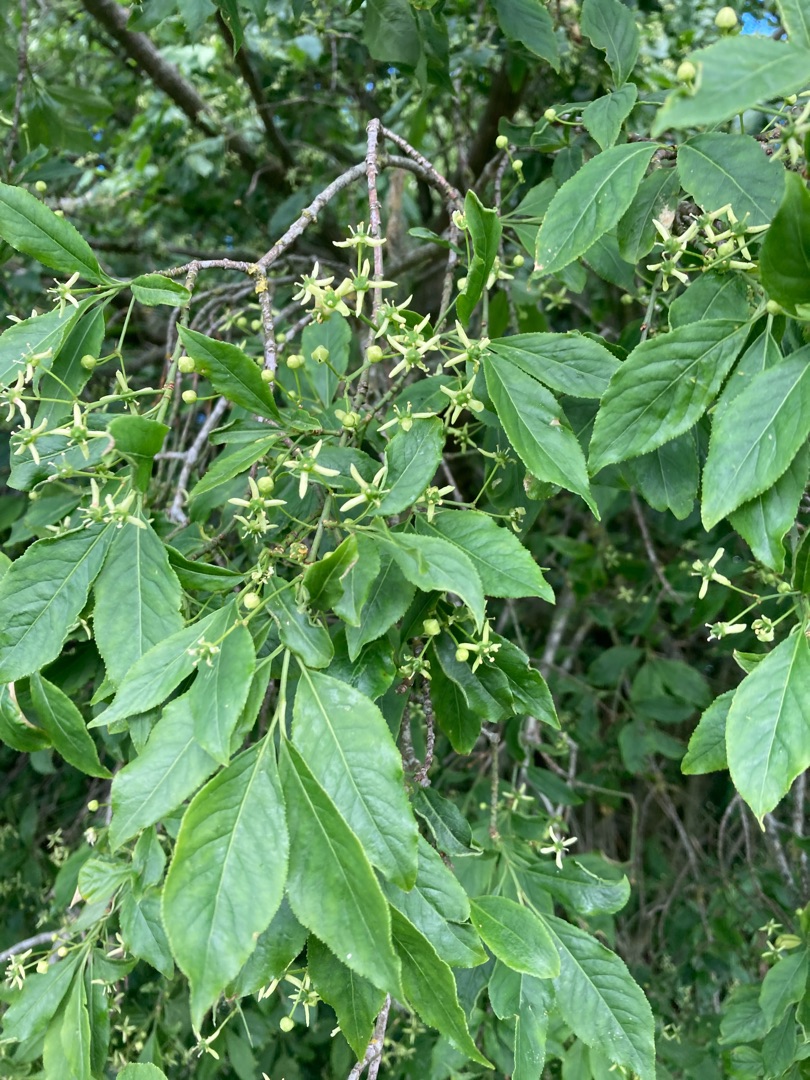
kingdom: Plantae
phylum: Tracheophyta
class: Magnoliopsida
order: Celastrales
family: Celastraceae
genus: Euonymus
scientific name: Euonymus europaeus
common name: Benved
